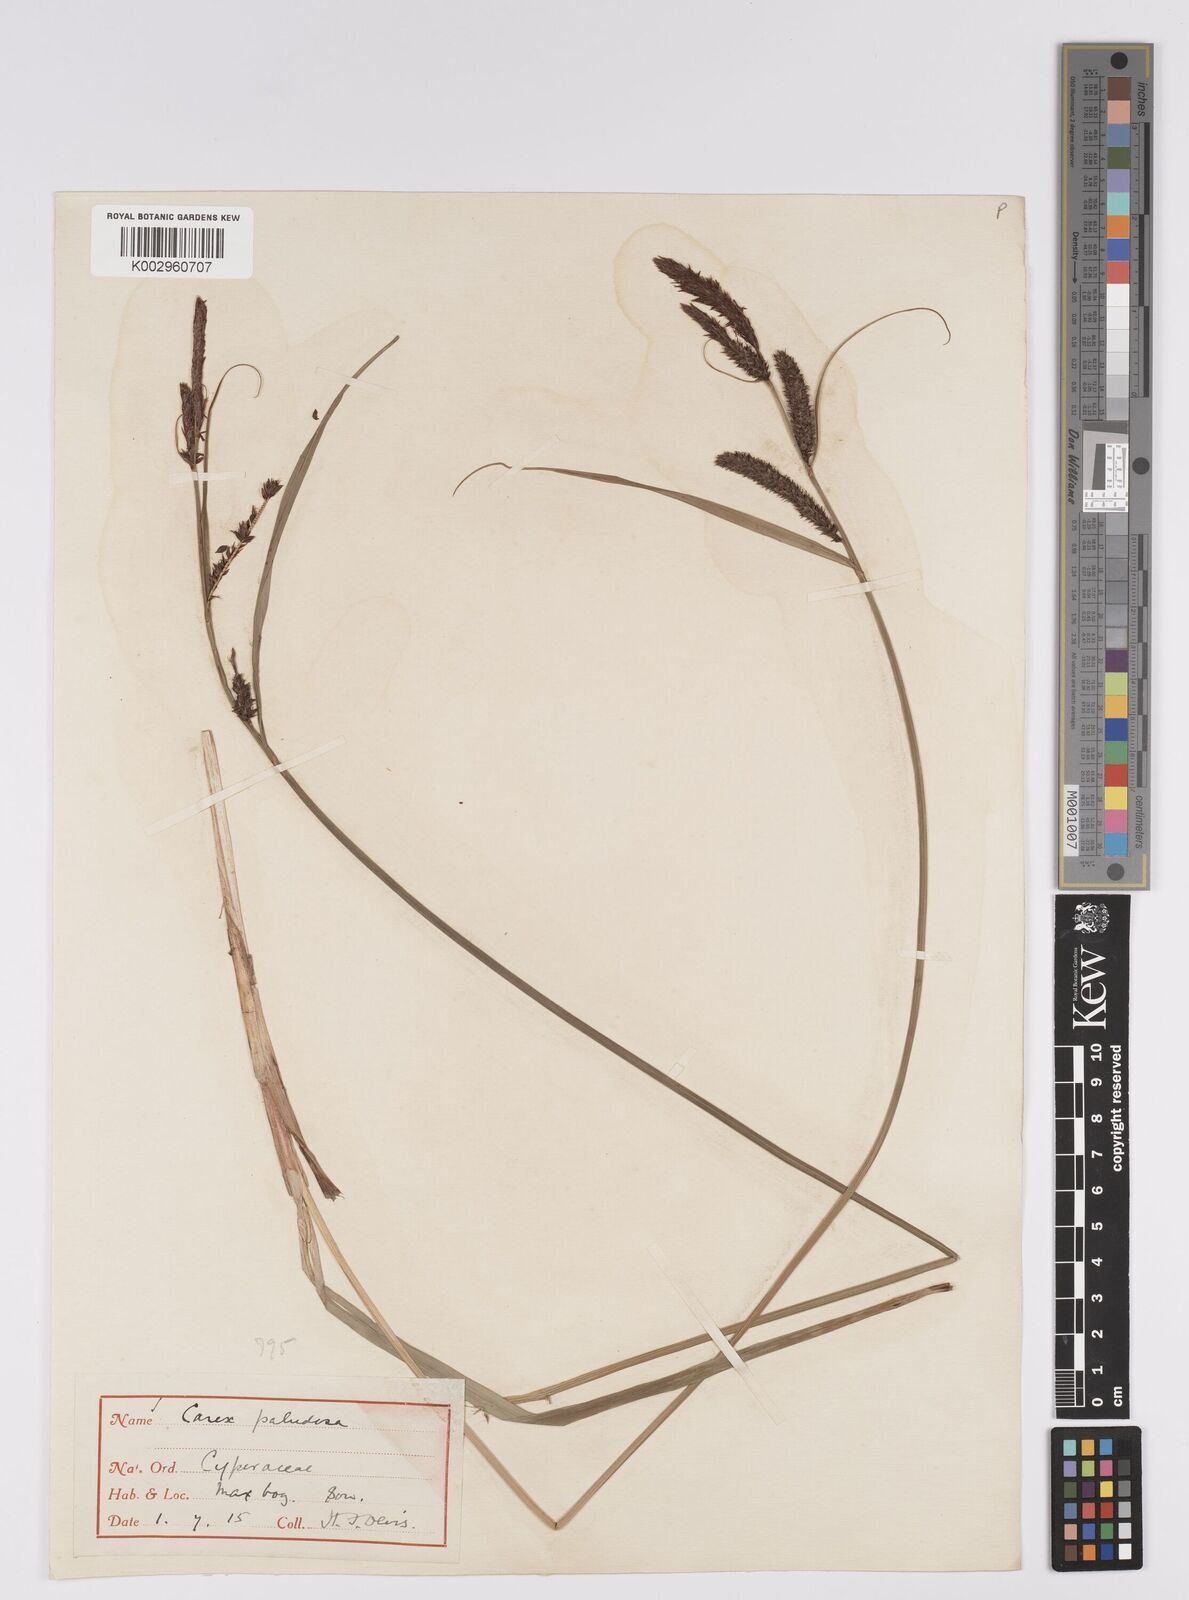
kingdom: Plantae
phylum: Tracheophyta
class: Liliopsida
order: Poales
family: Cyperaceae
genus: Carex
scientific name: Carex acutiformis
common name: Lesser pond-sedge
